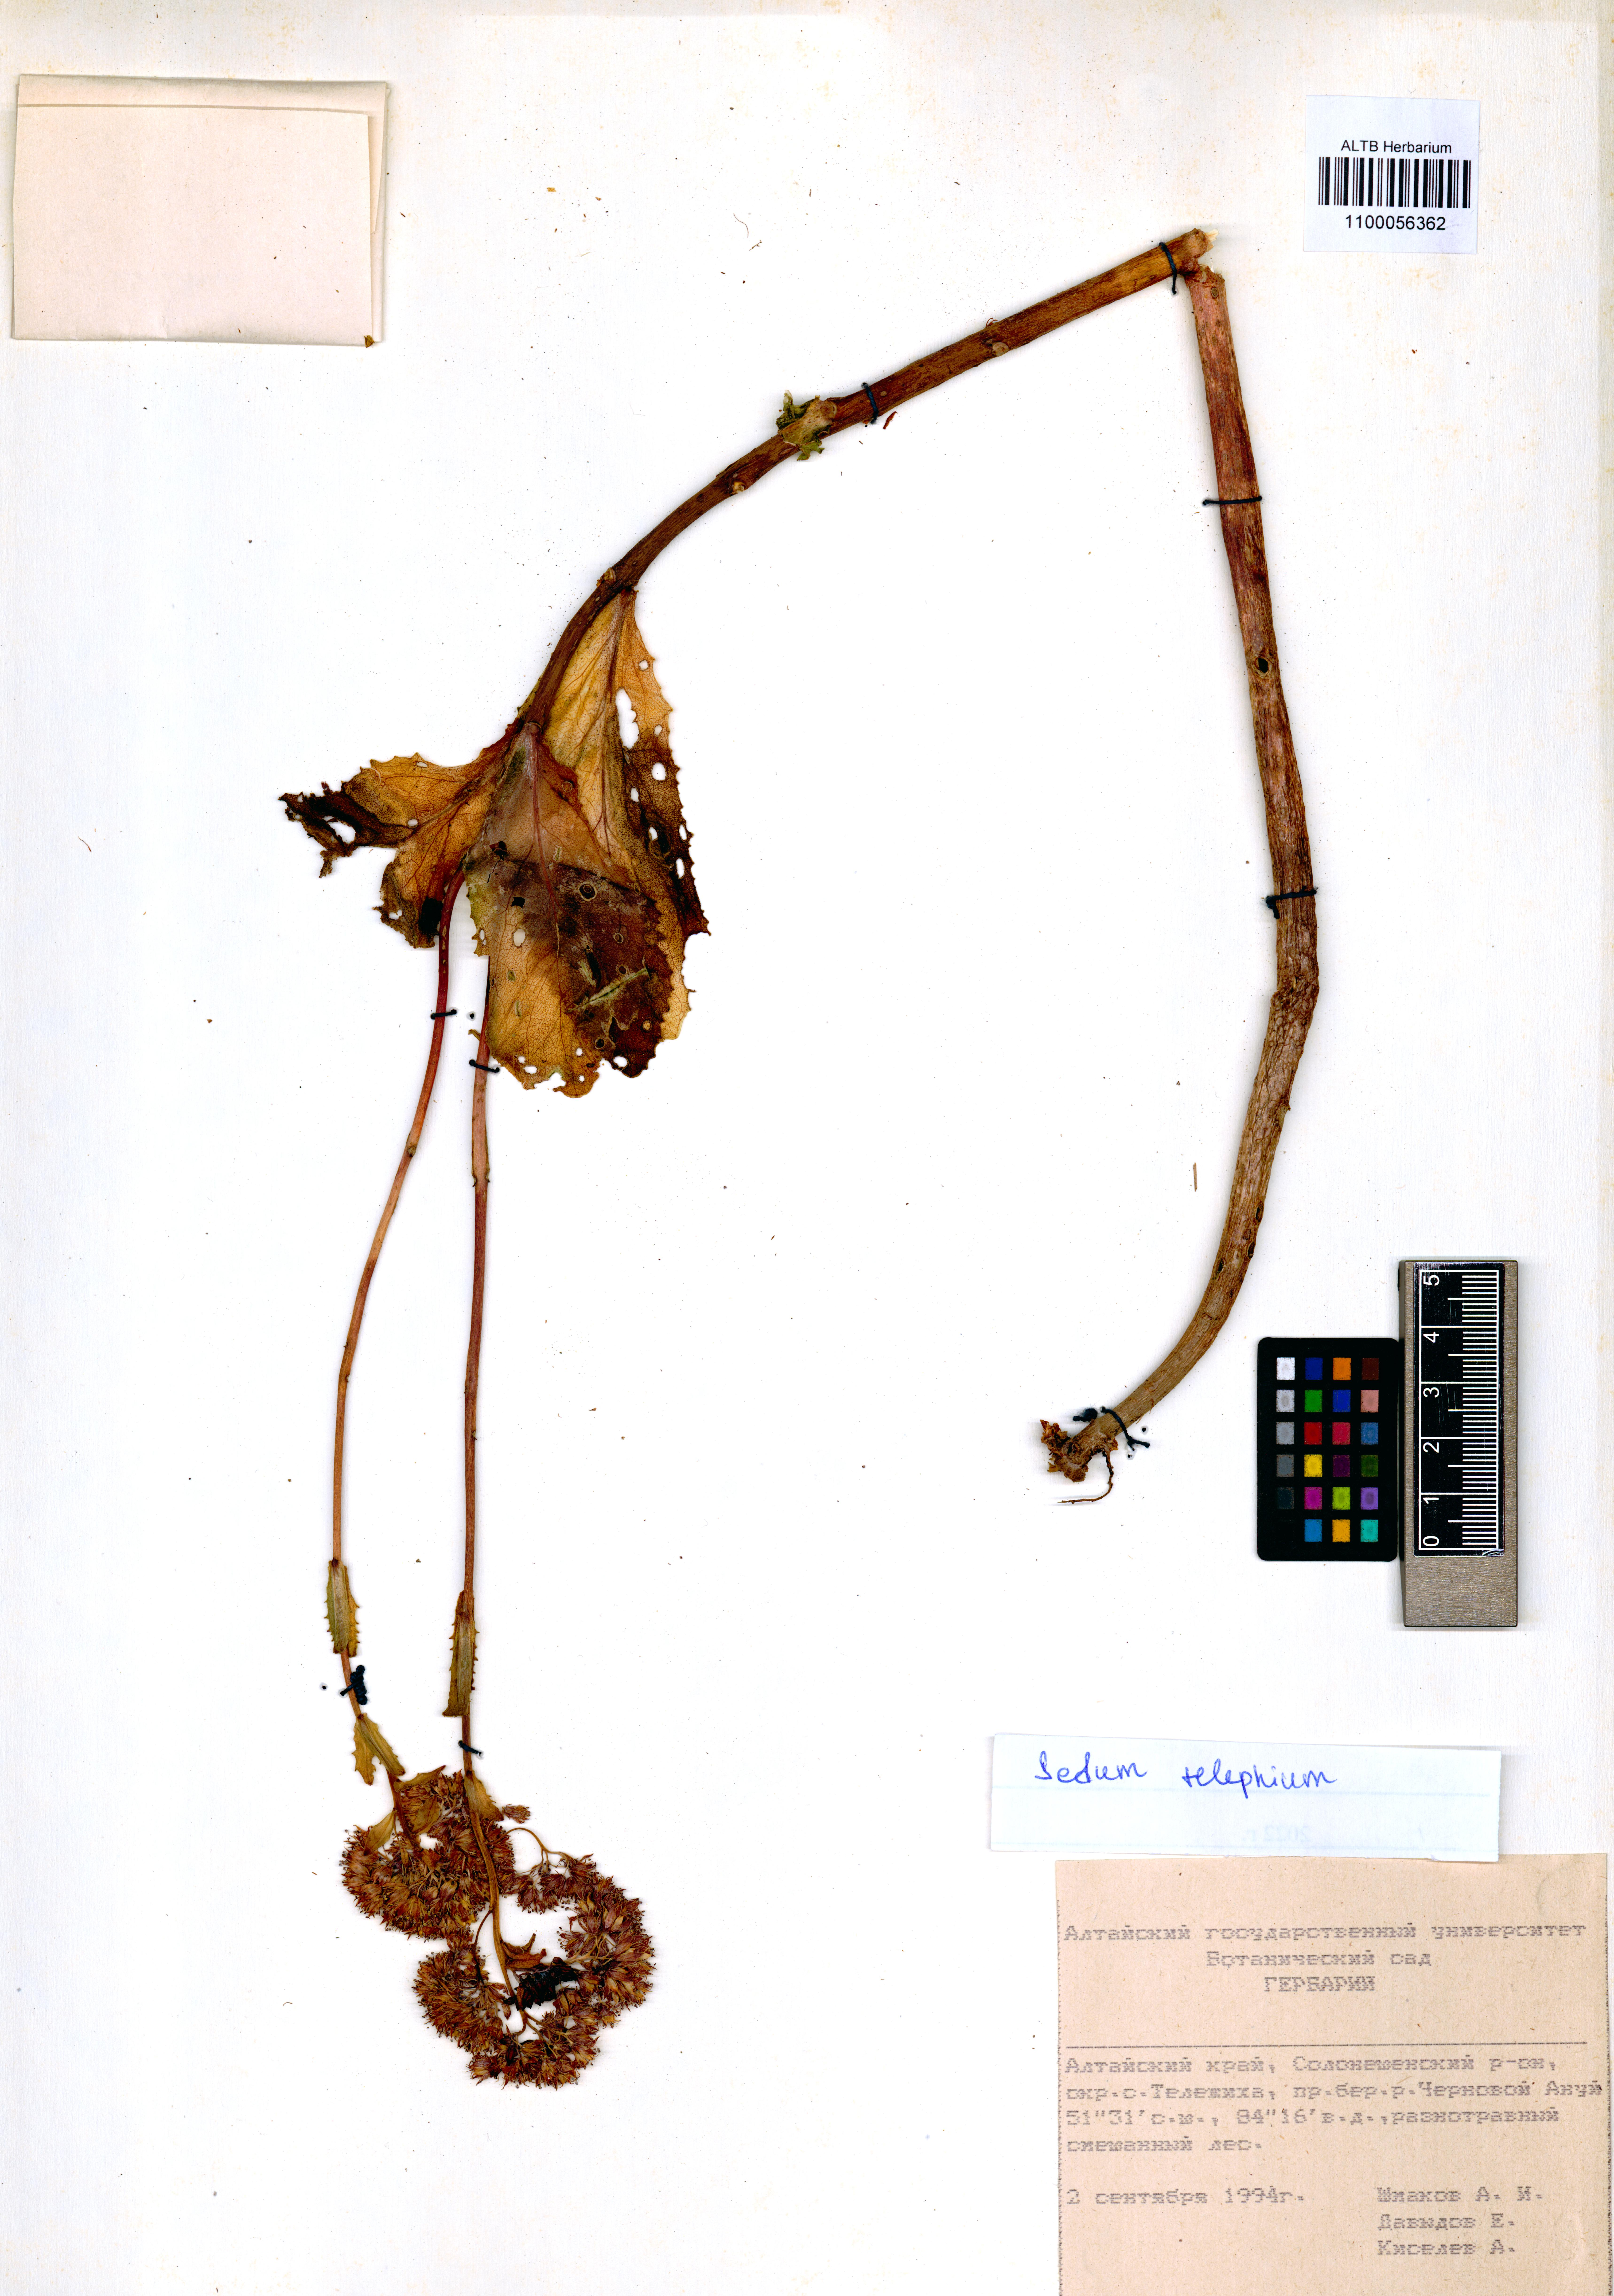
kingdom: Plantae
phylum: Tracheophyta
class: Magnoliopsida
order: Saxifragales
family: Crassulaceae
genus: Hylotelephium
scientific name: Hylotelephium telephium
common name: Live-forever
